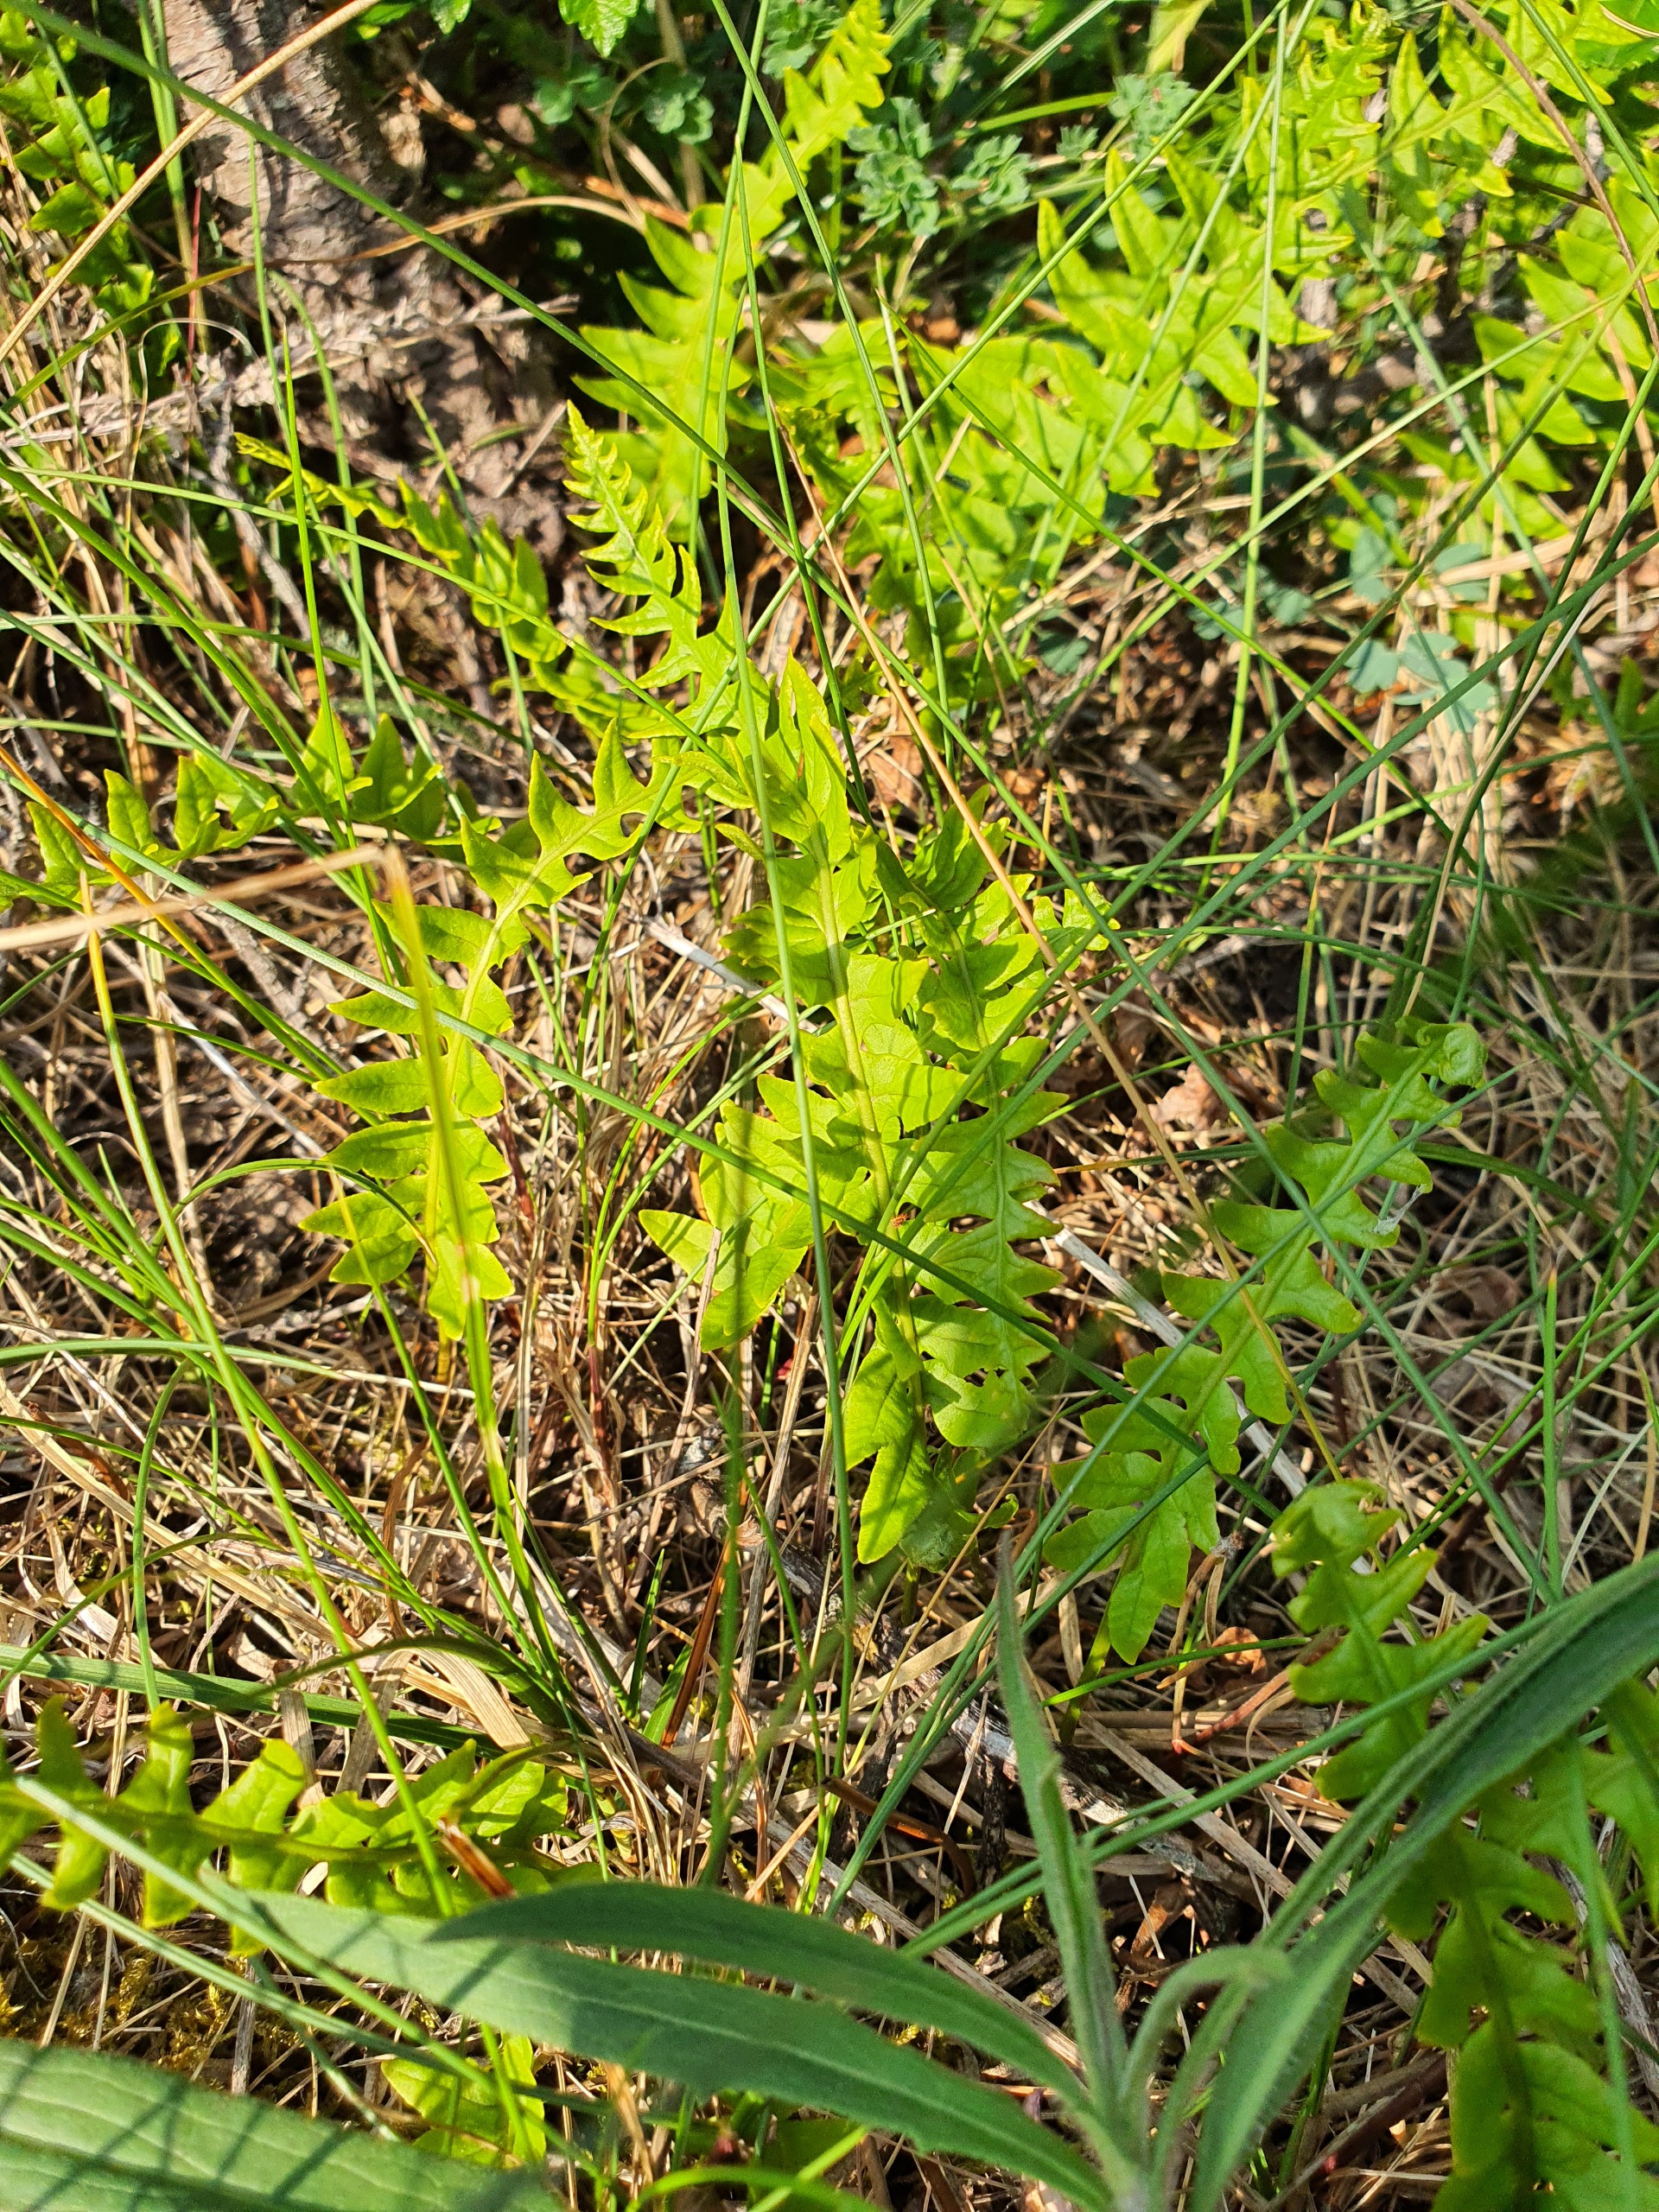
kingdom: Plantae
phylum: Tracheophyta
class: Polypodiopsida
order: Polypodiales
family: Polypodiaceae
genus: Polypodium
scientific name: Polypodium vulgare
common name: Almindelig engelsød
